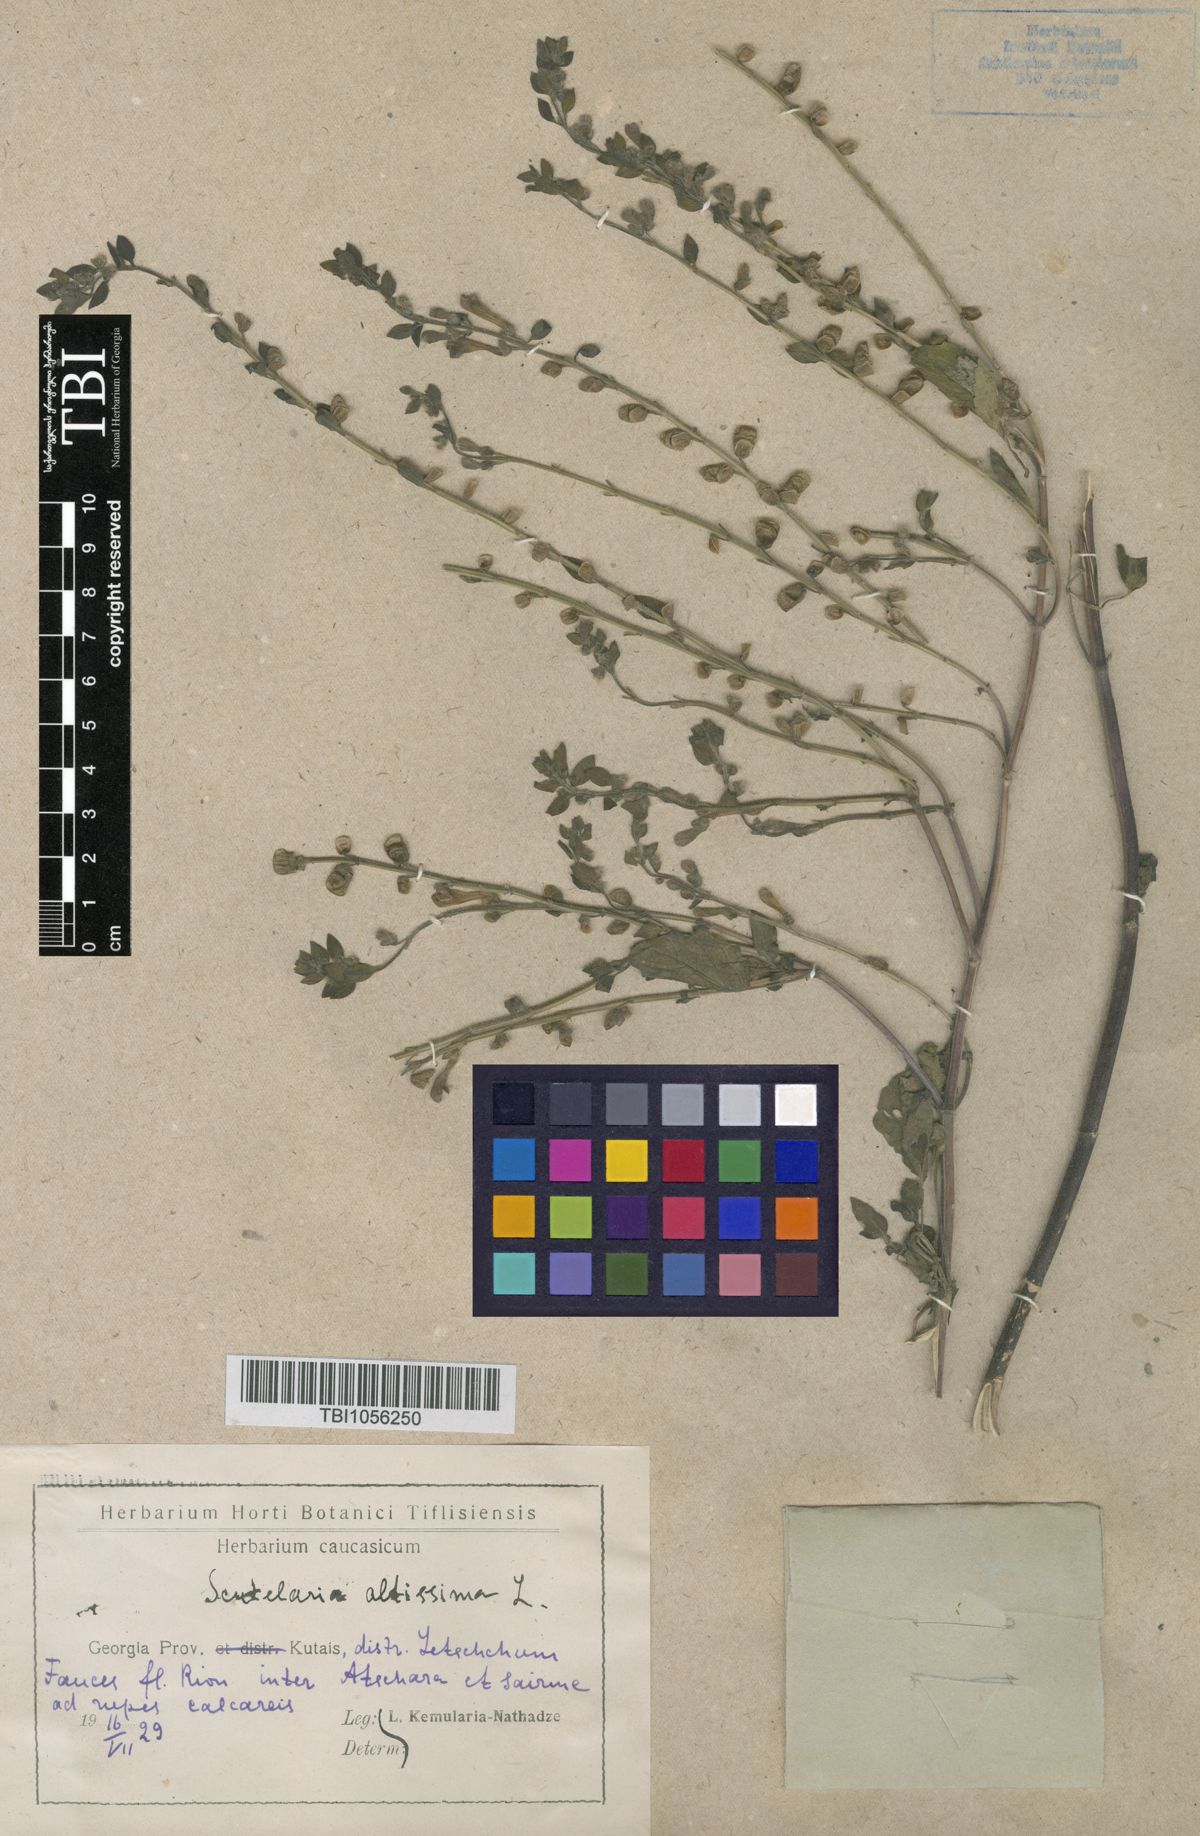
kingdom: Plantae
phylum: Tracheophyta
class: Magnoliopsida
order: Lamiales
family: Lamiaceae
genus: Scutellaria
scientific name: Scutellaria altissima
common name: Somerset skullcap
